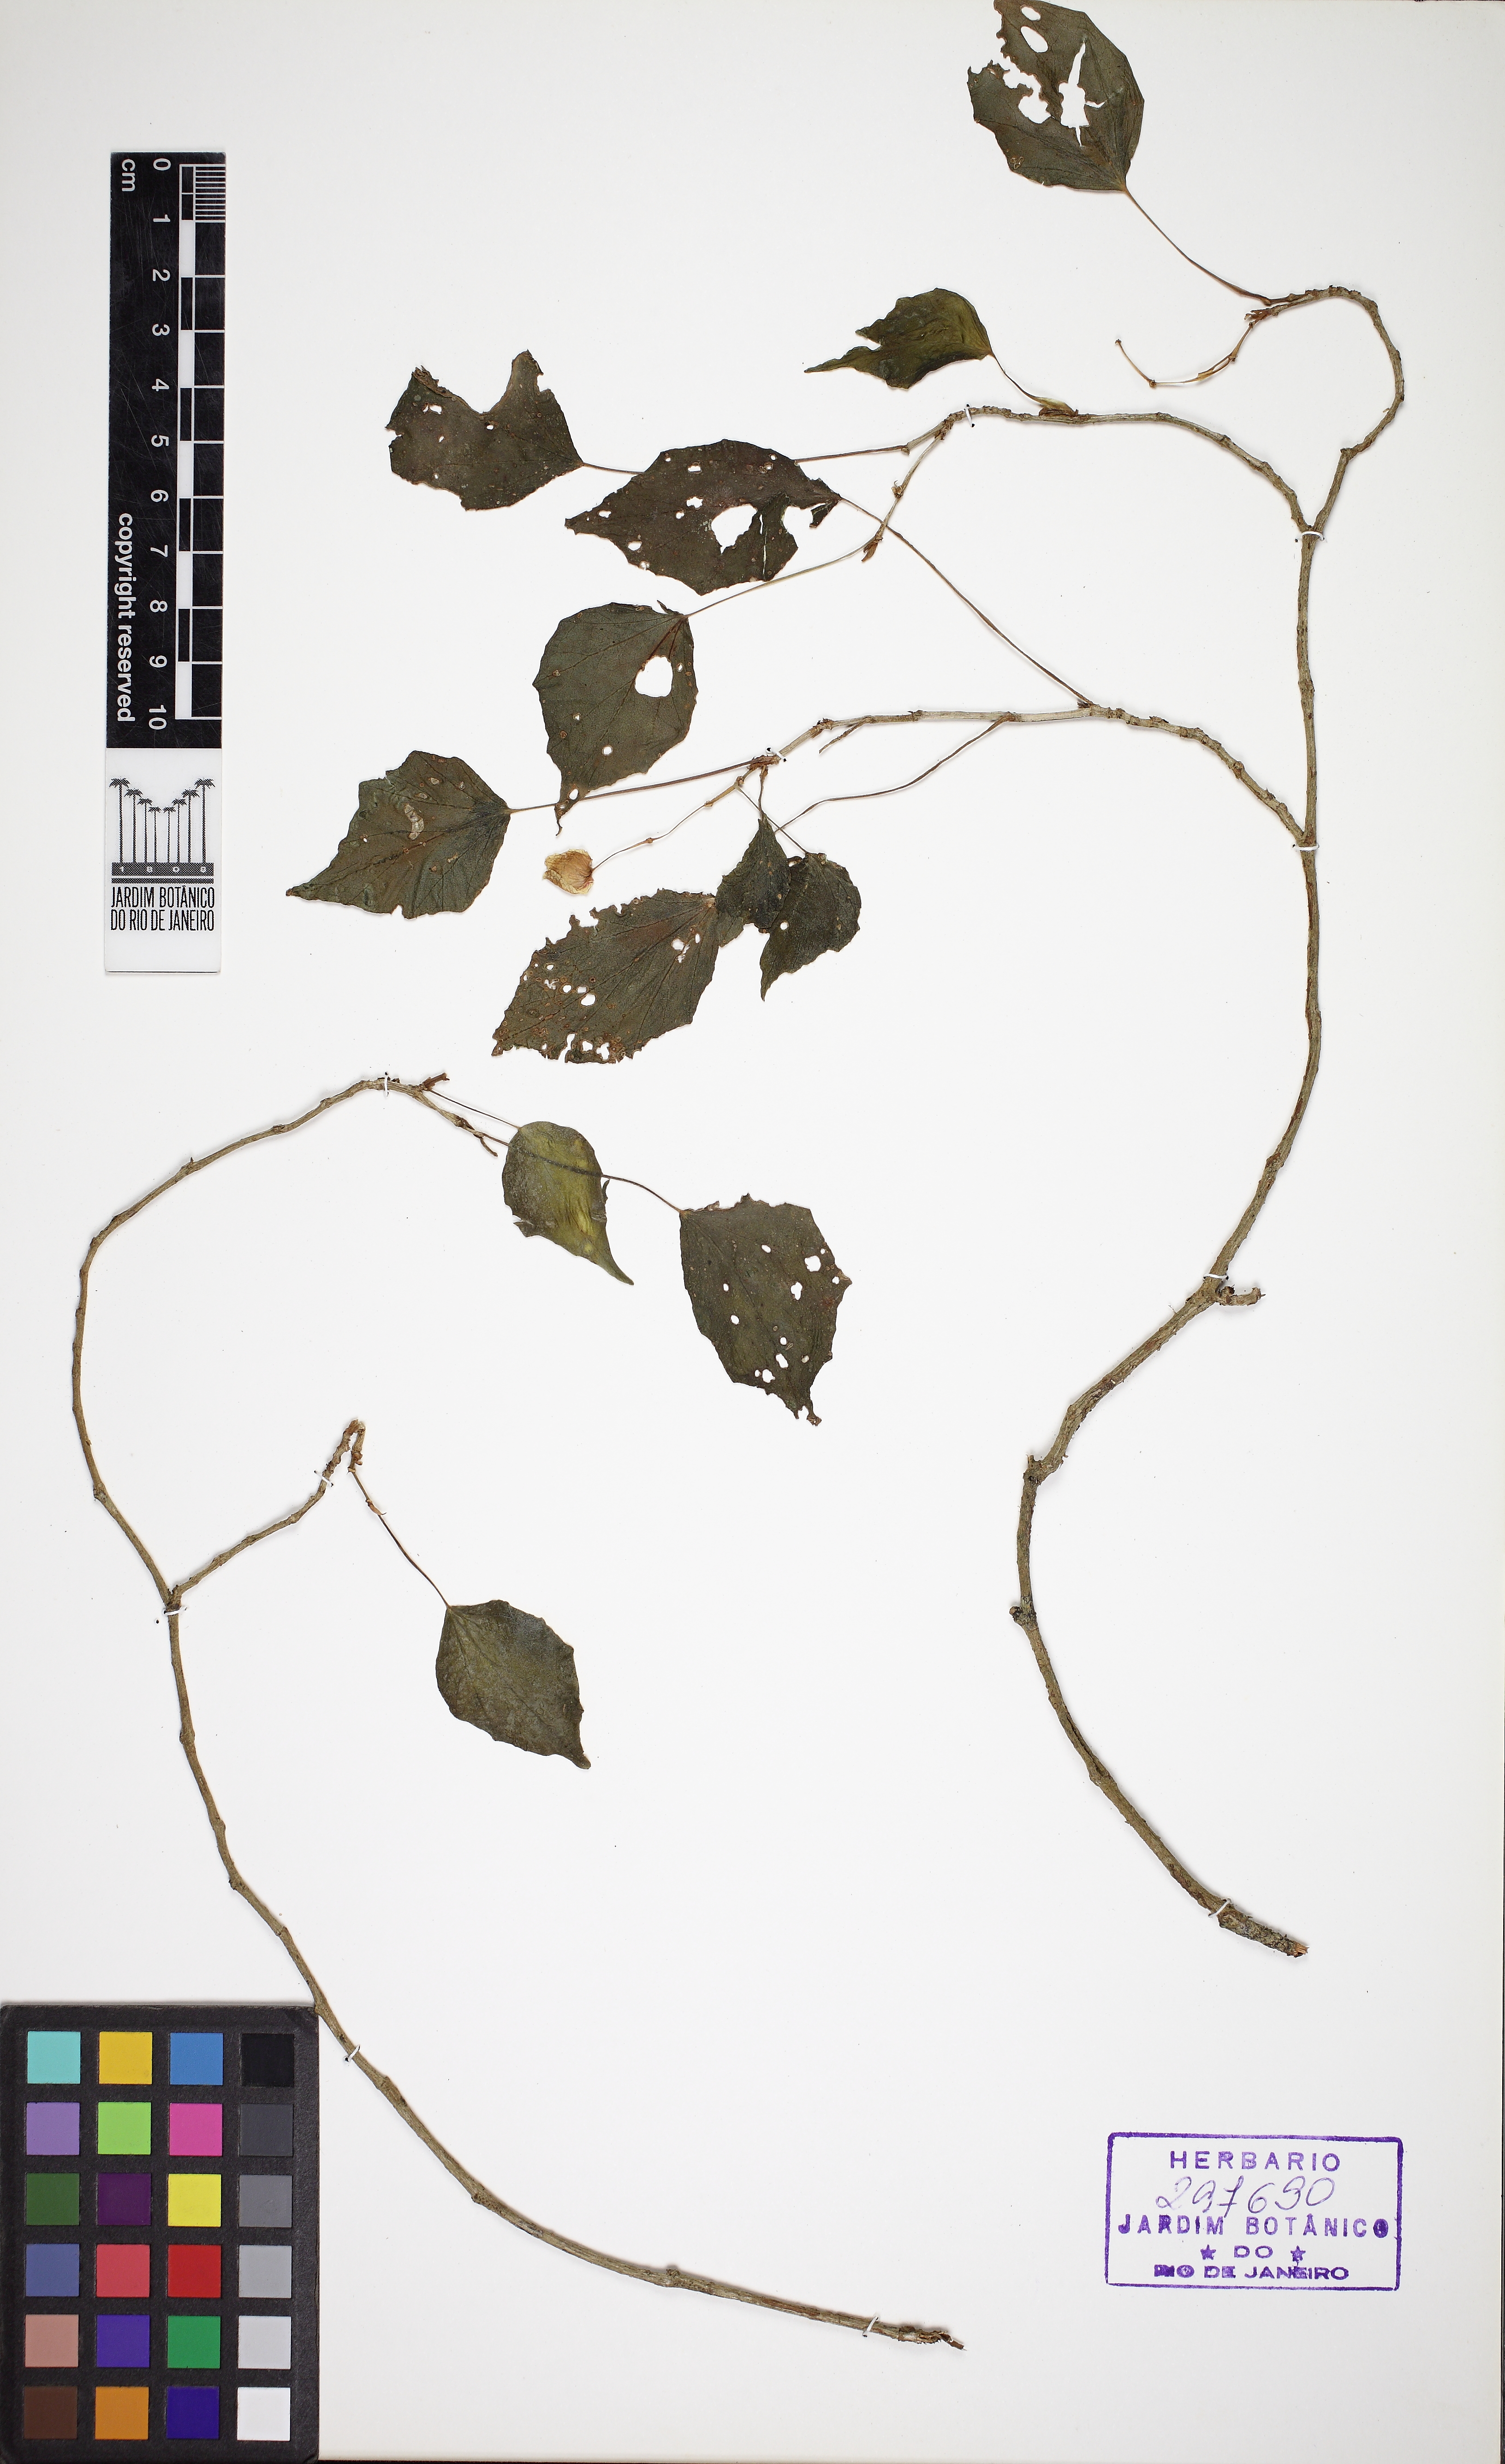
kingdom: Plantae
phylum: Tracheophyta
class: Magnoliopsida
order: Cucurbitales
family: Begoniaceae
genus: Begonia
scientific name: Begonia integerrima
